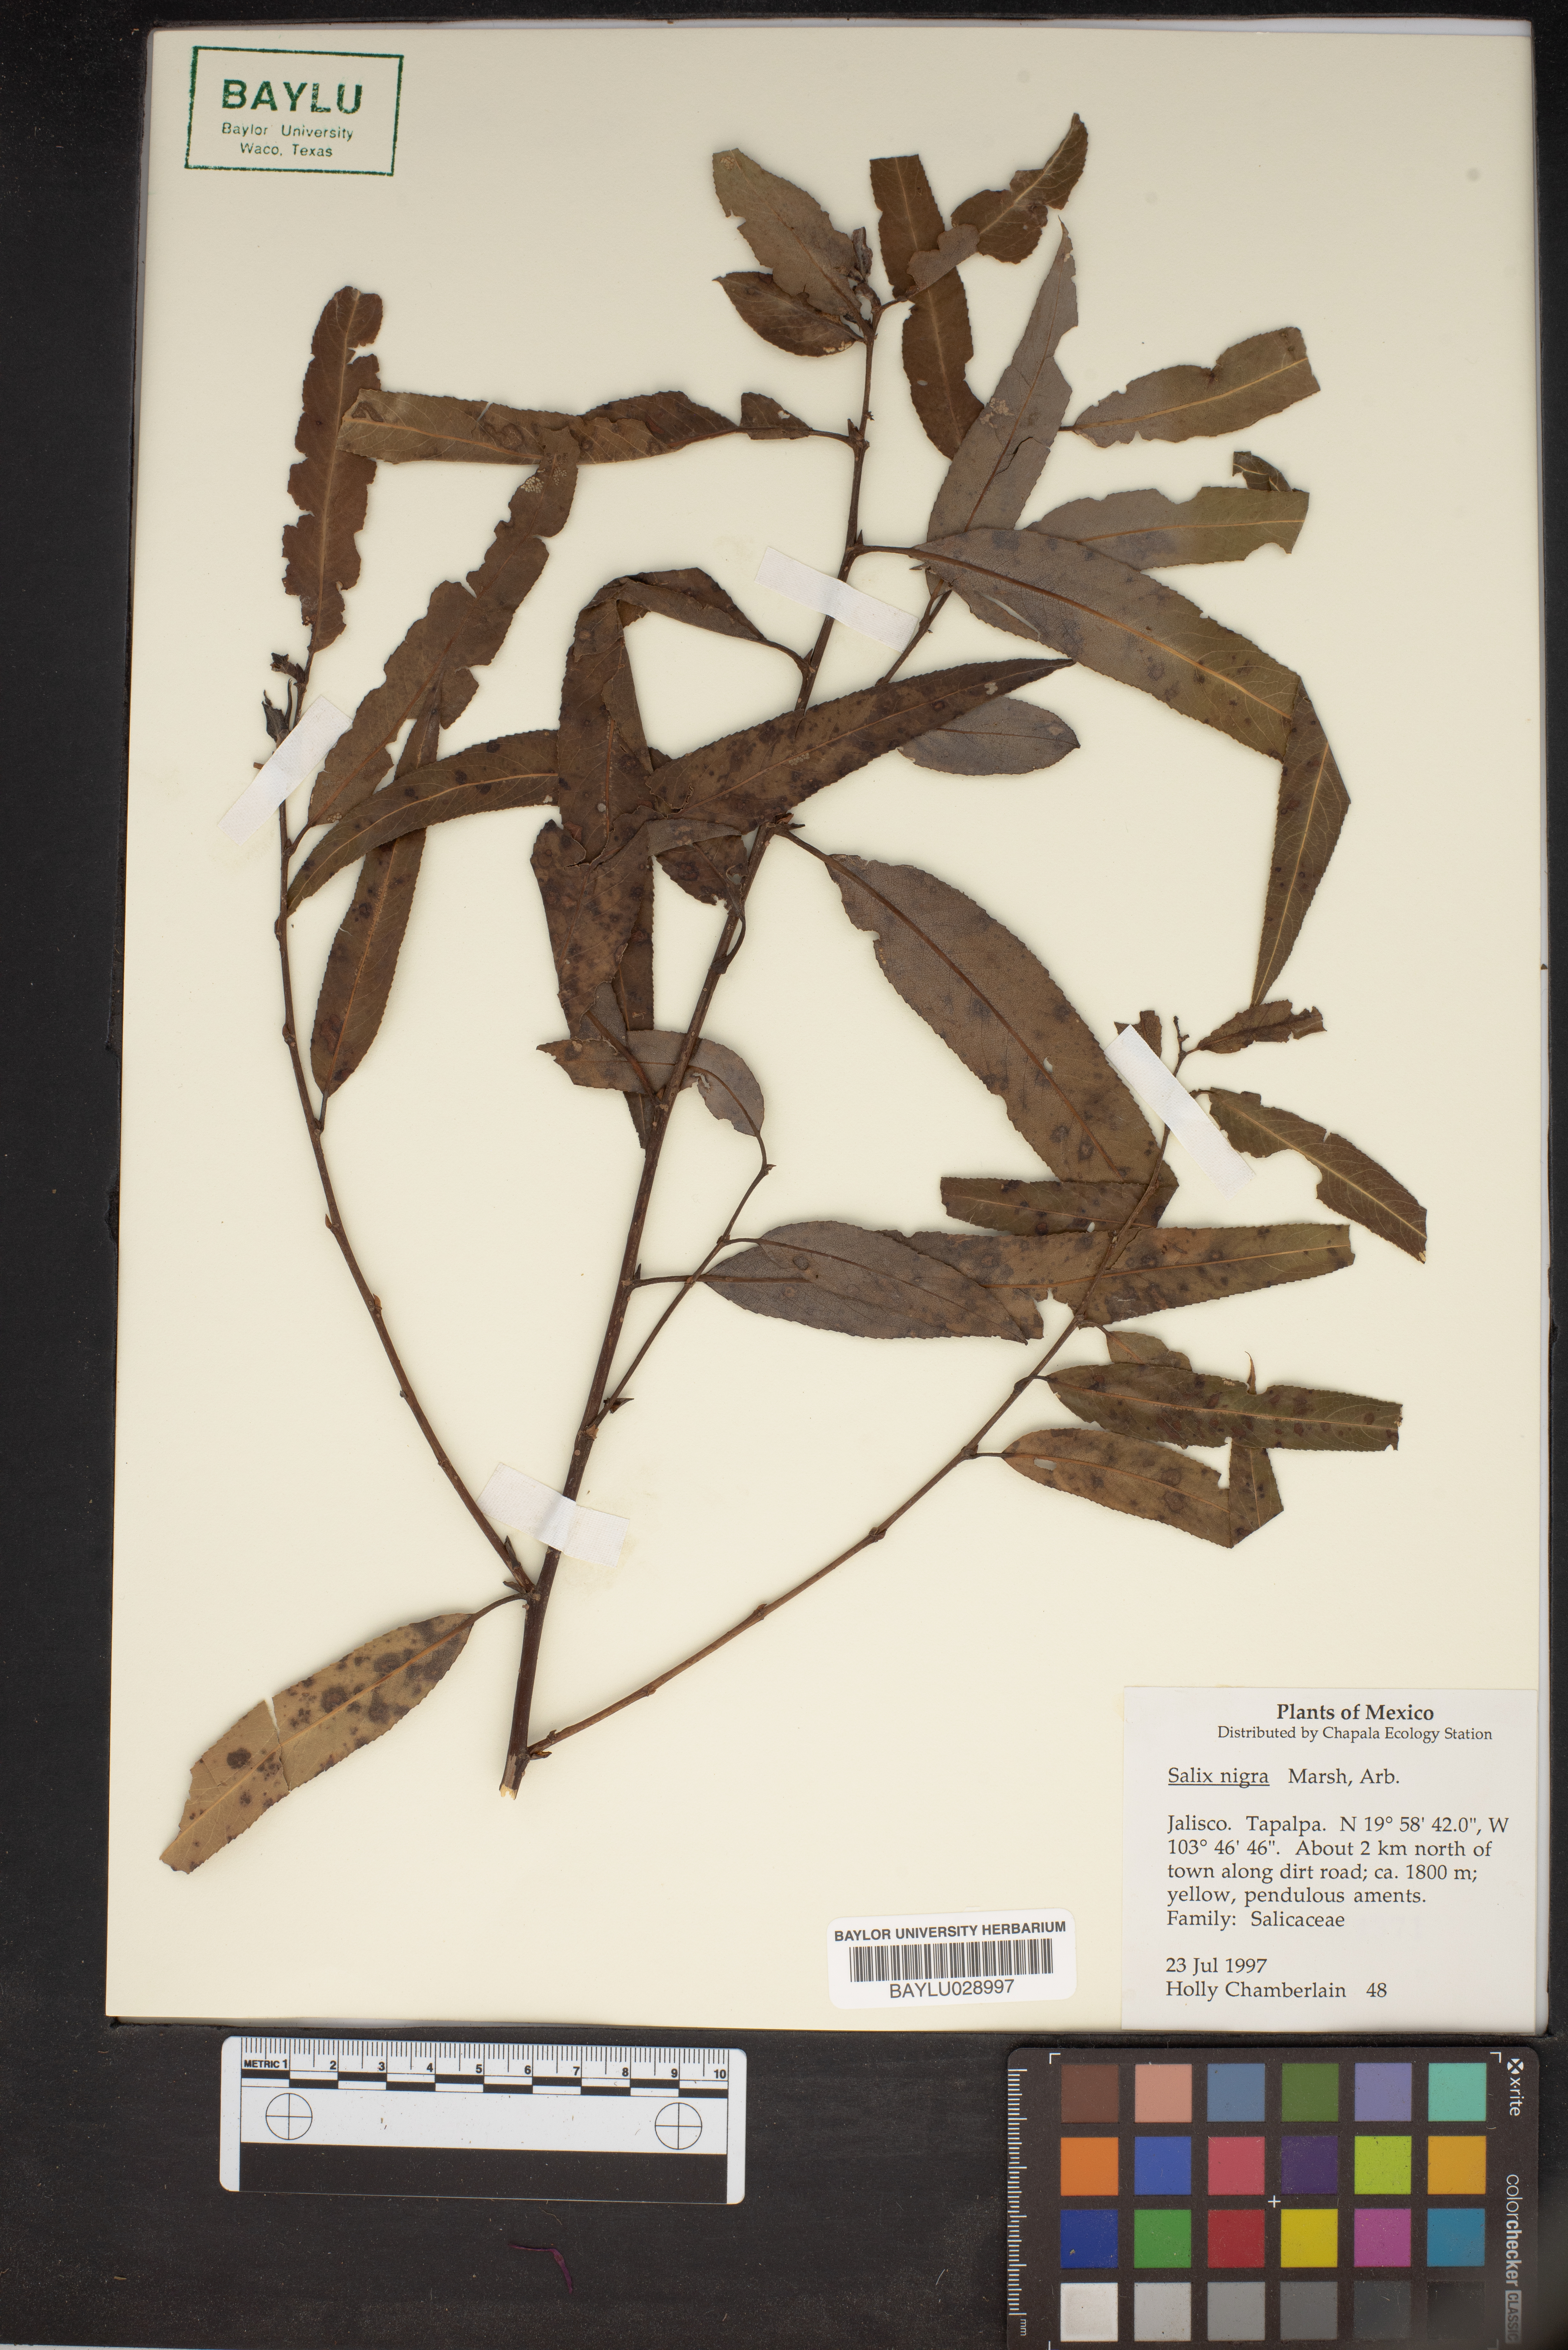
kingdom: Plantae
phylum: Tracheophyta
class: Magnoliopsida
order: Malpighiales
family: Salicaceae
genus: Salix
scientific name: Salix nigra
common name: Black willow
